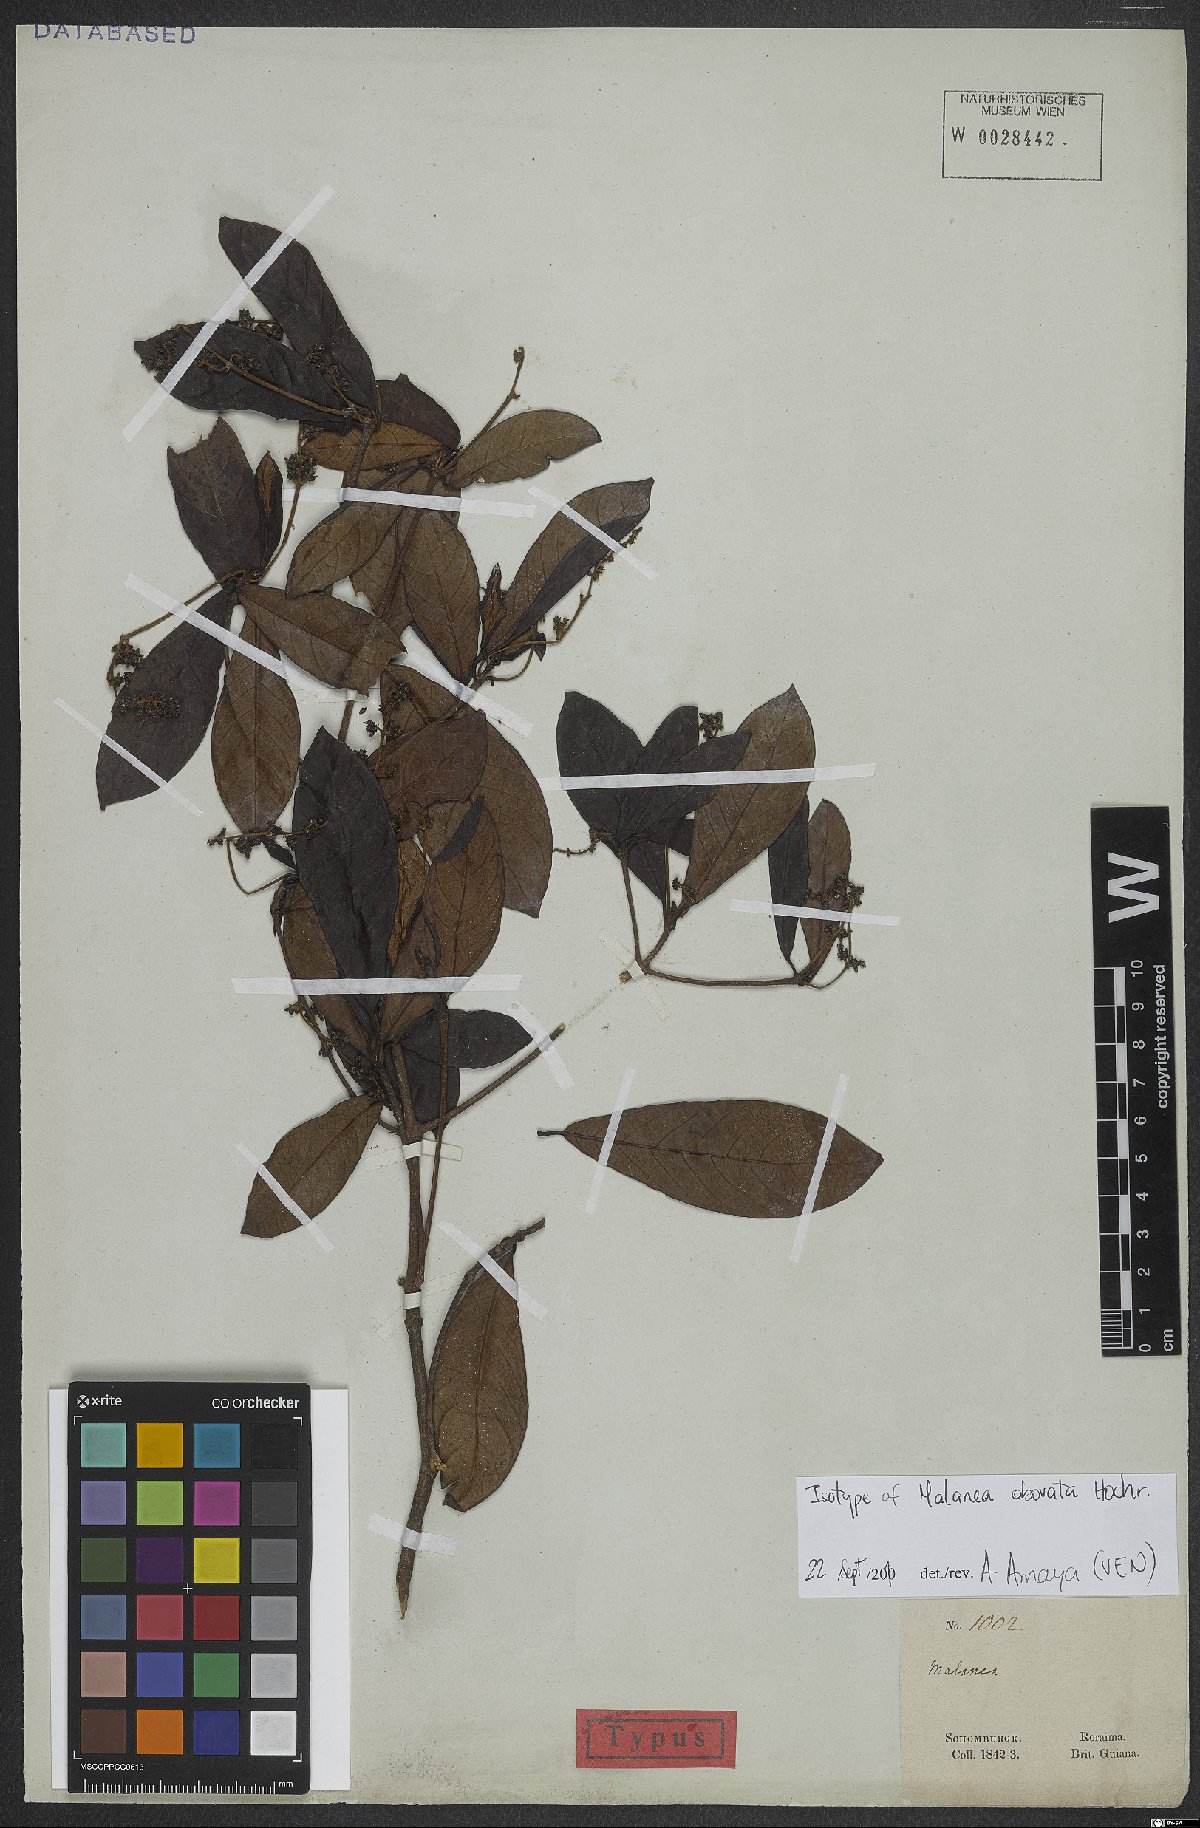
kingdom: Plantae
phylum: Tracheophyta
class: Magnoliopsida
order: Gentianales
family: Rubiaceae
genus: Malanea
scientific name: Malanea obovata
